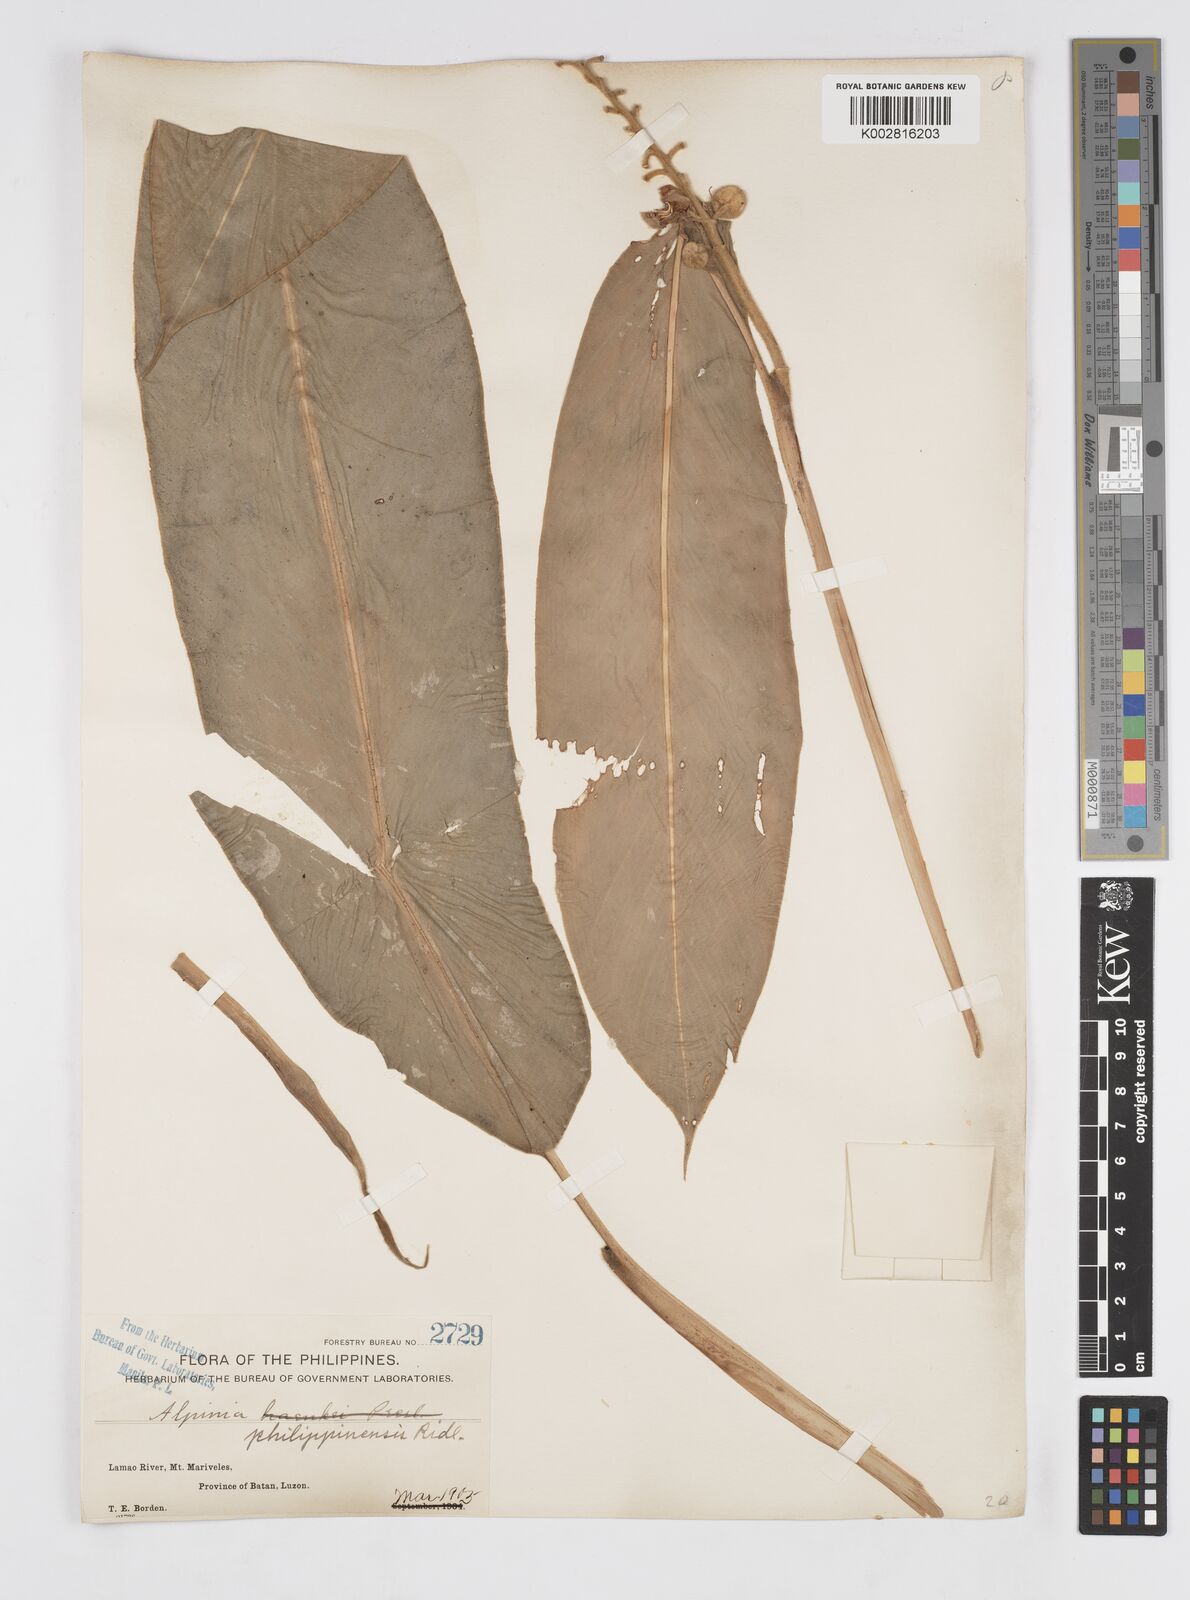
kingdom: Plantae
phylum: Tracheophyta
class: Liliopsida
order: Zingiberales
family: Zingiberaceae
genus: Alpinia
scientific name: Alpinia haenkei
